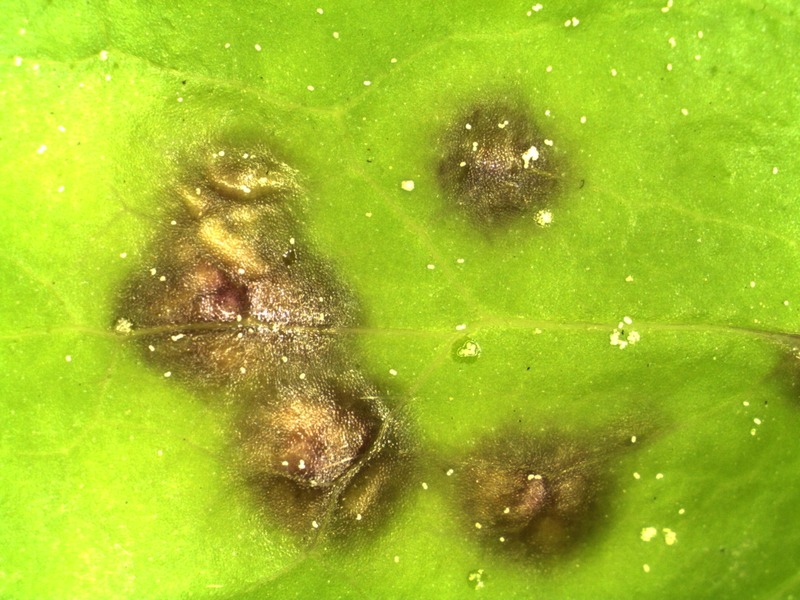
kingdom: Fungi
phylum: Basidiomycota
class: Ustilaginomycetes
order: Urocystidales
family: Urocystidaceae
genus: Urocystis
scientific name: Urocystis syncocca
